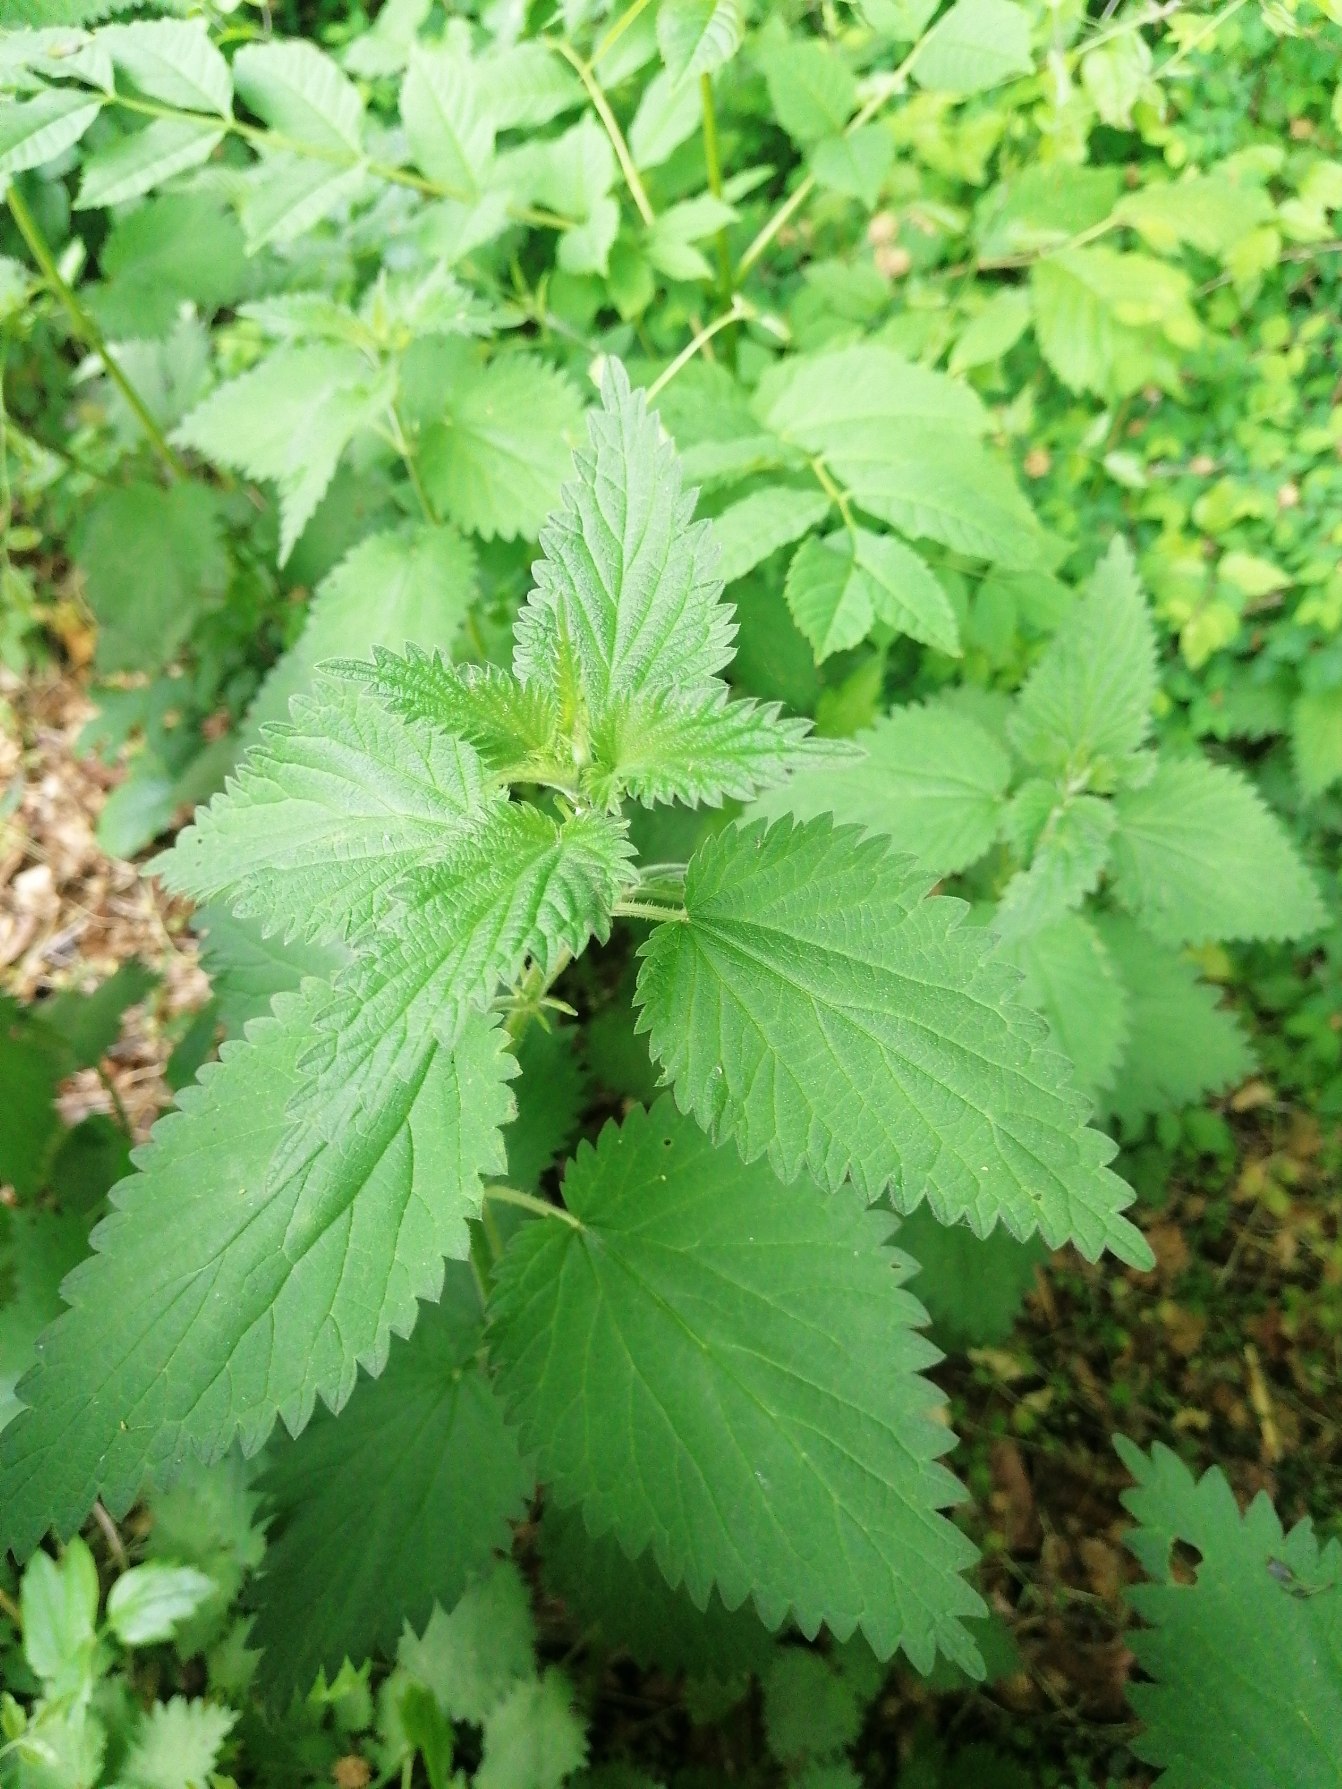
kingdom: Plantae
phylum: Tracheophyta
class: Magnoliopsida
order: Rosales
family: Urticaceae
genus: Urtica
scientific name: Urtica dioica
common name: Stor nælde
